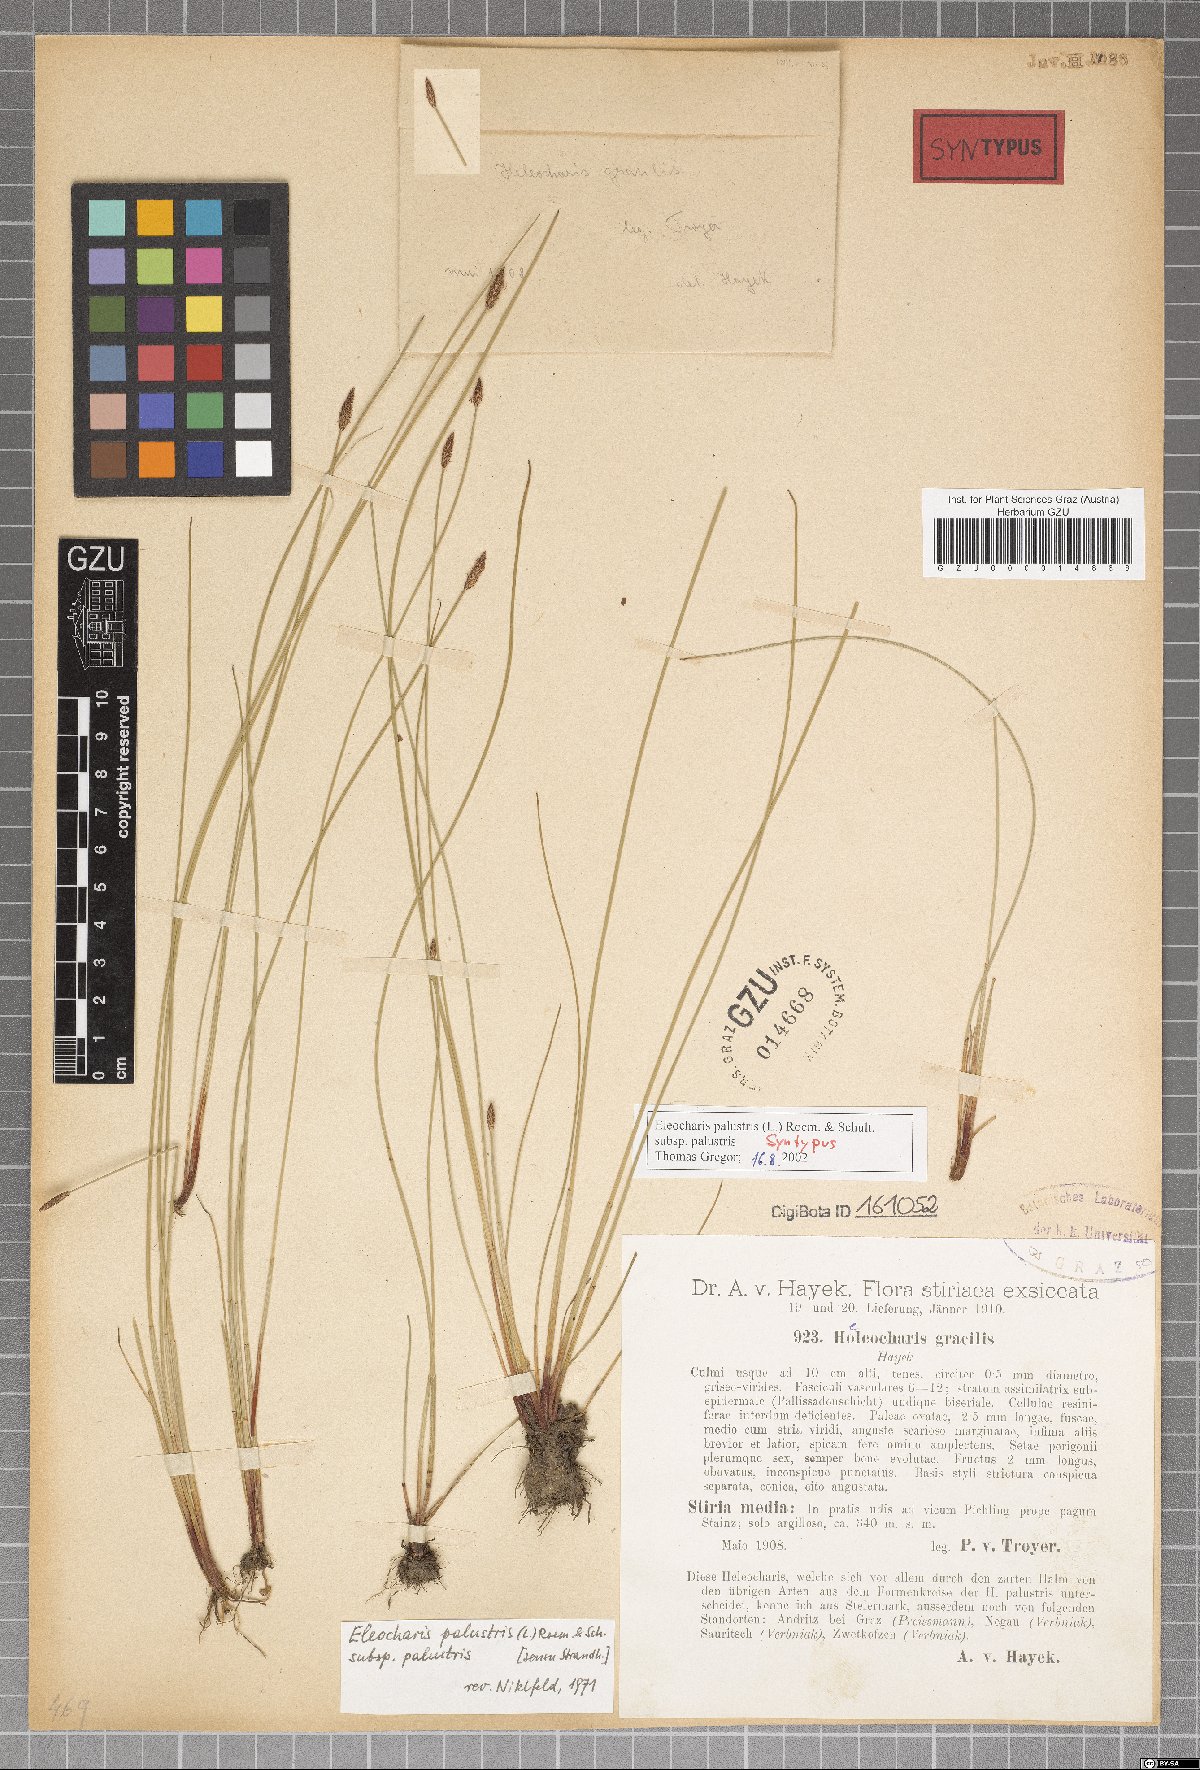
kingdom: Plantae
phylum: Tracheophyta
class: Liliopsida
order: Poales
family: Cyperaceae
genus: Eleocharis
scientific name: Eleocharis palustris
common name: Common spike-rush
